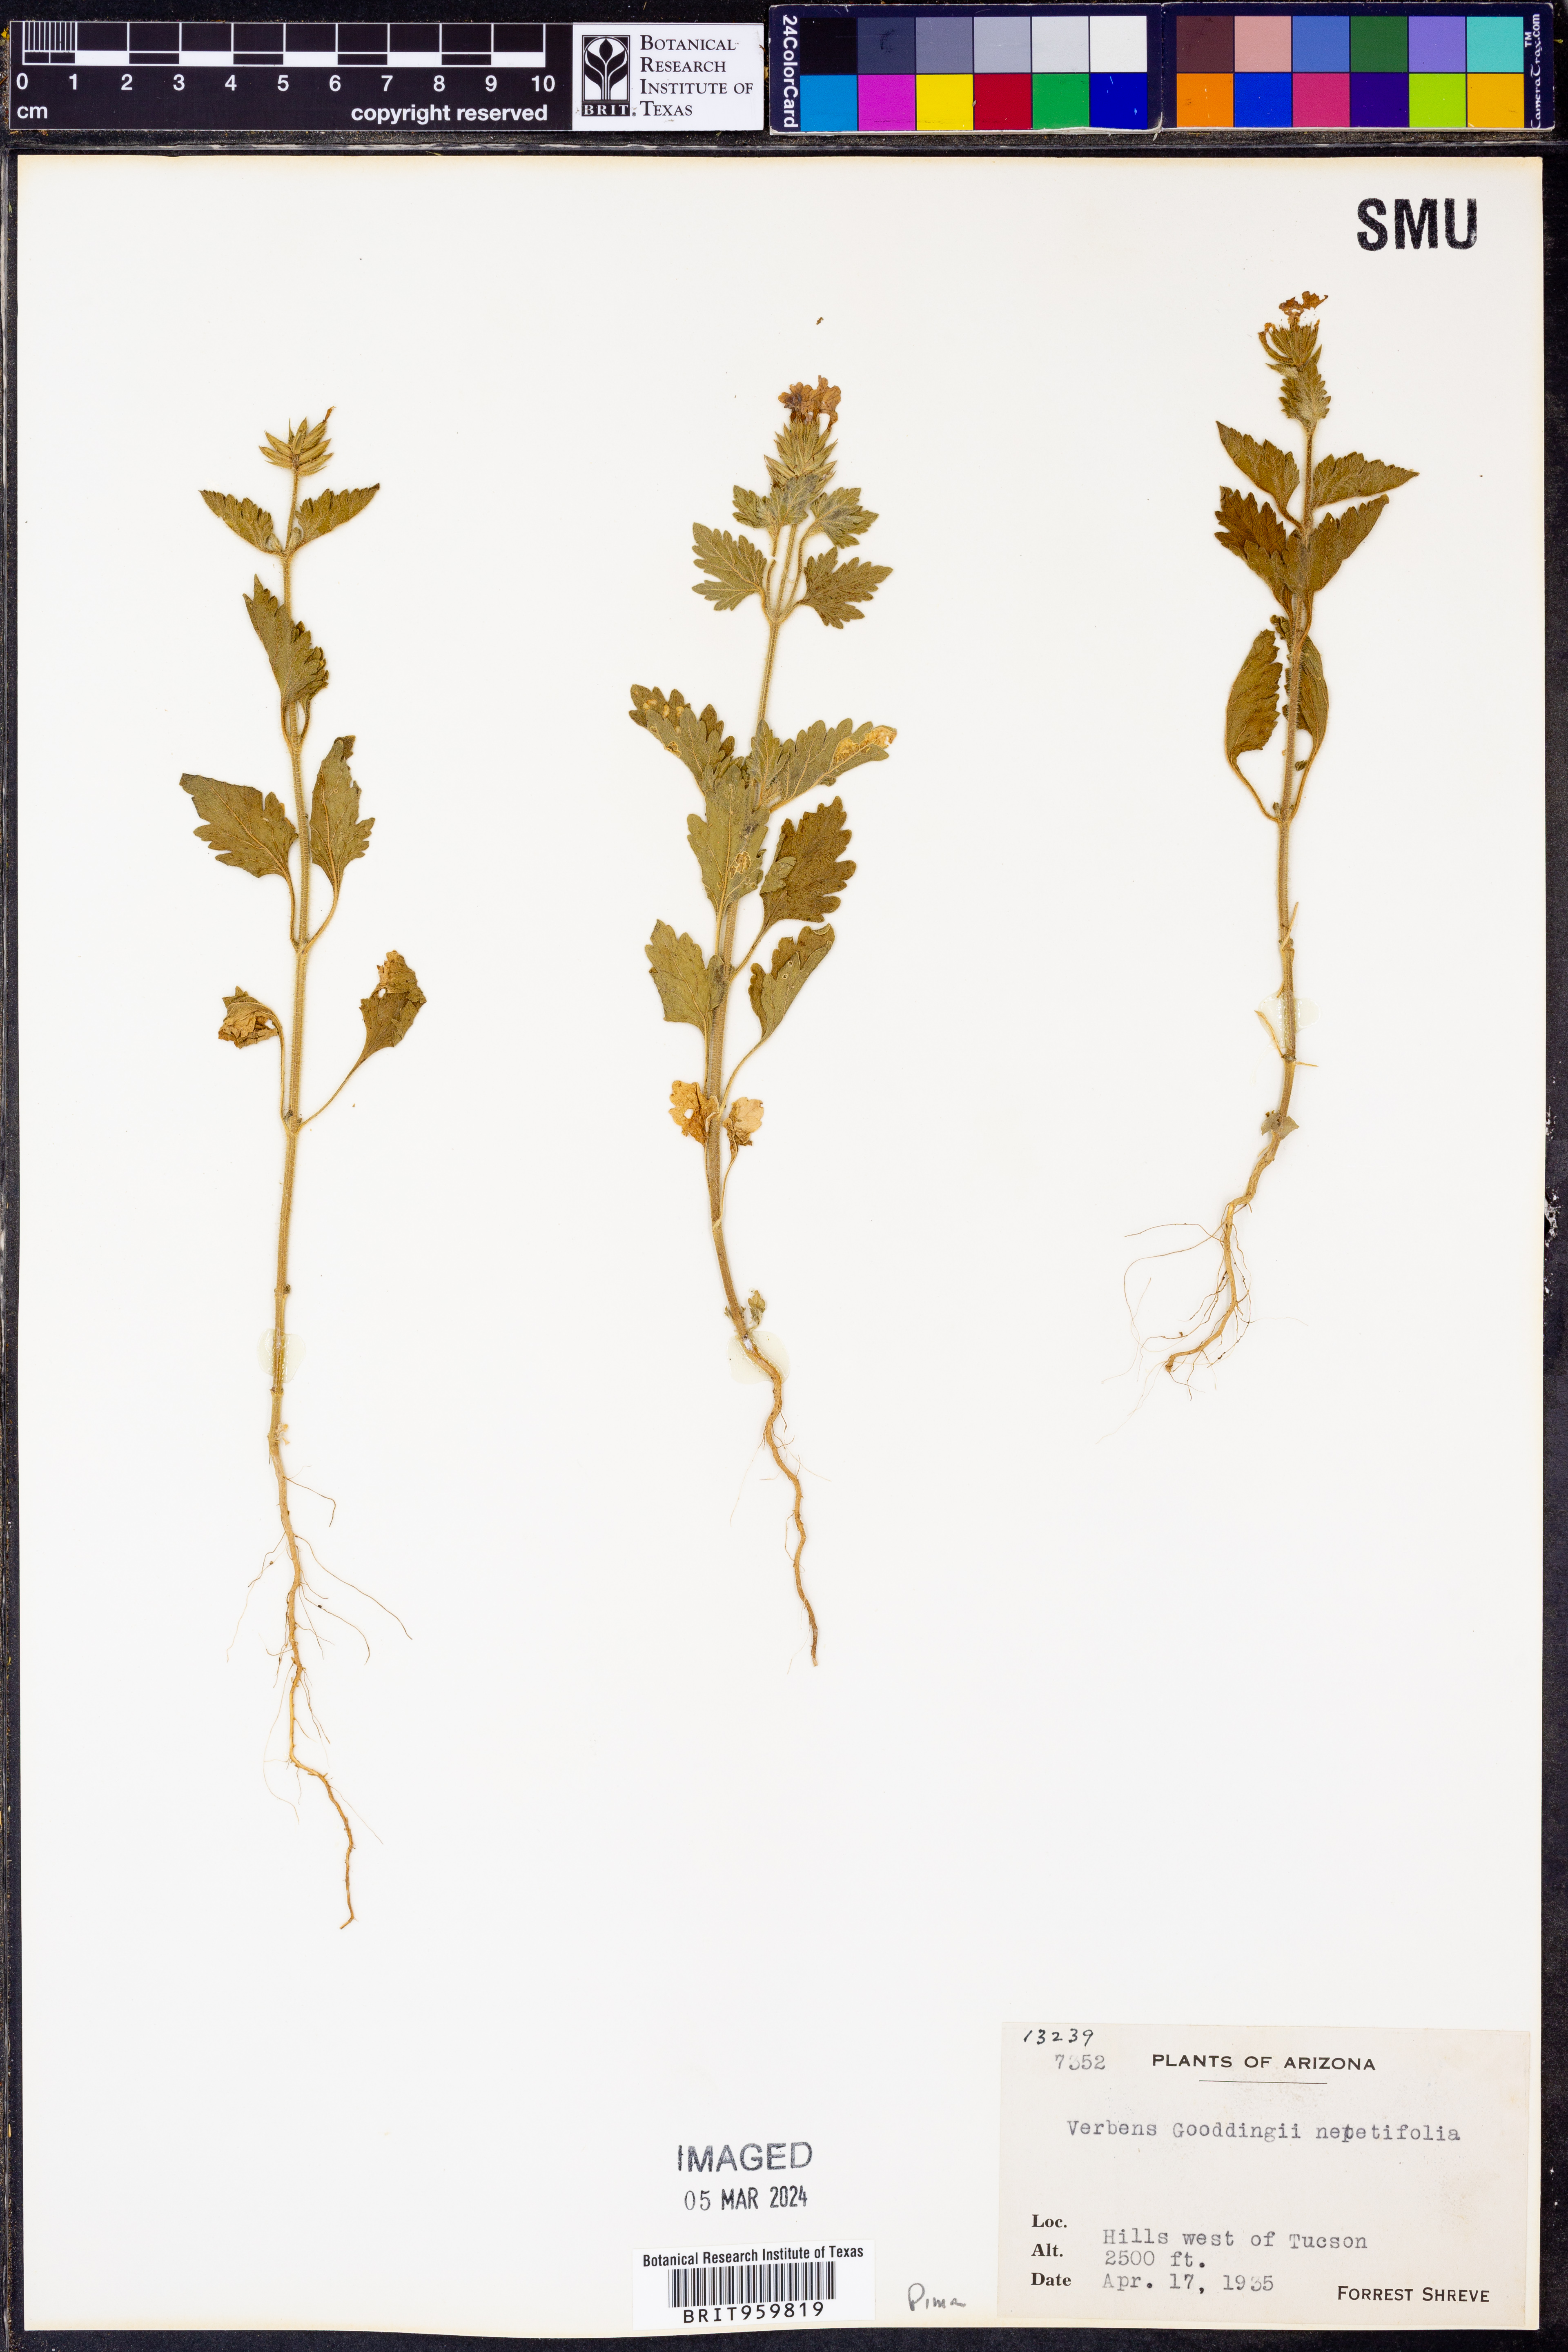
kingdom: Plantae
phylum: Tracheophyta
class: Magnoliopsida
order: Lamiales
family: Verbenaceae
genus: Verbena
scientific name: Verbena gooddingii
